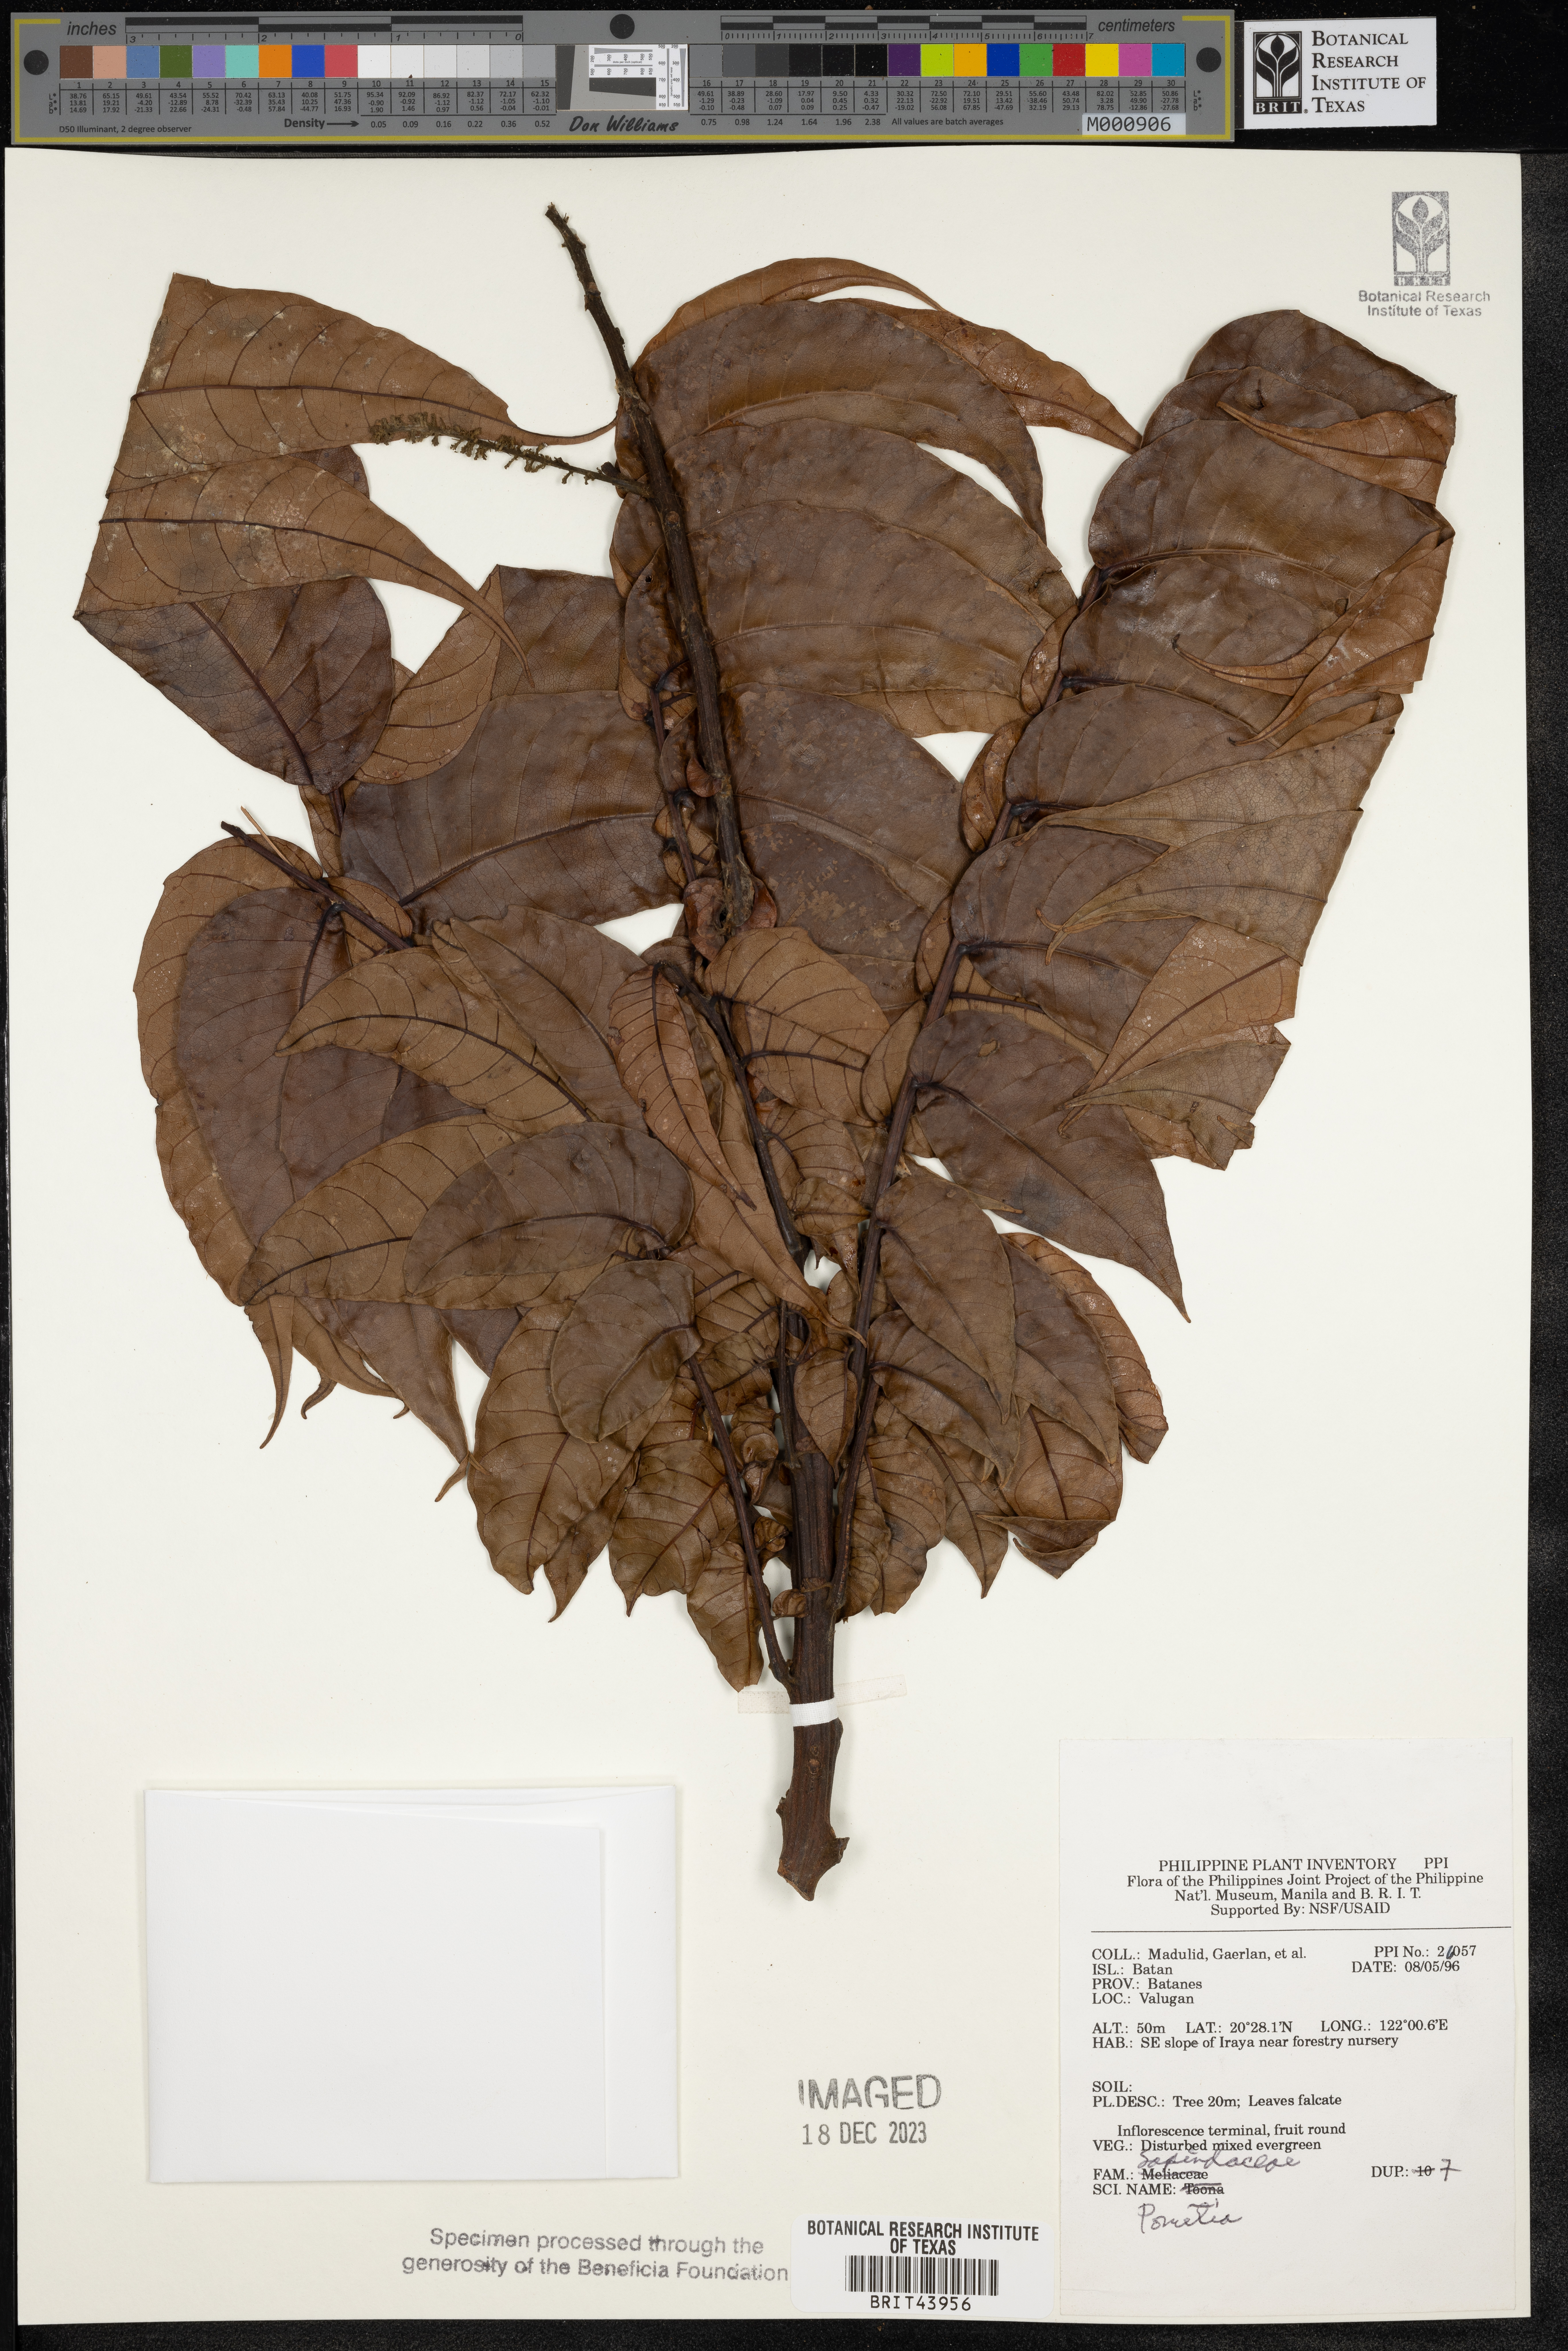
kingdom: Plantae
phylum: Tracheophyta
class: Magnoliopsida
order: Sapindales
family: Sapindaceae
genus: Pometia
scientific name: Pometia
